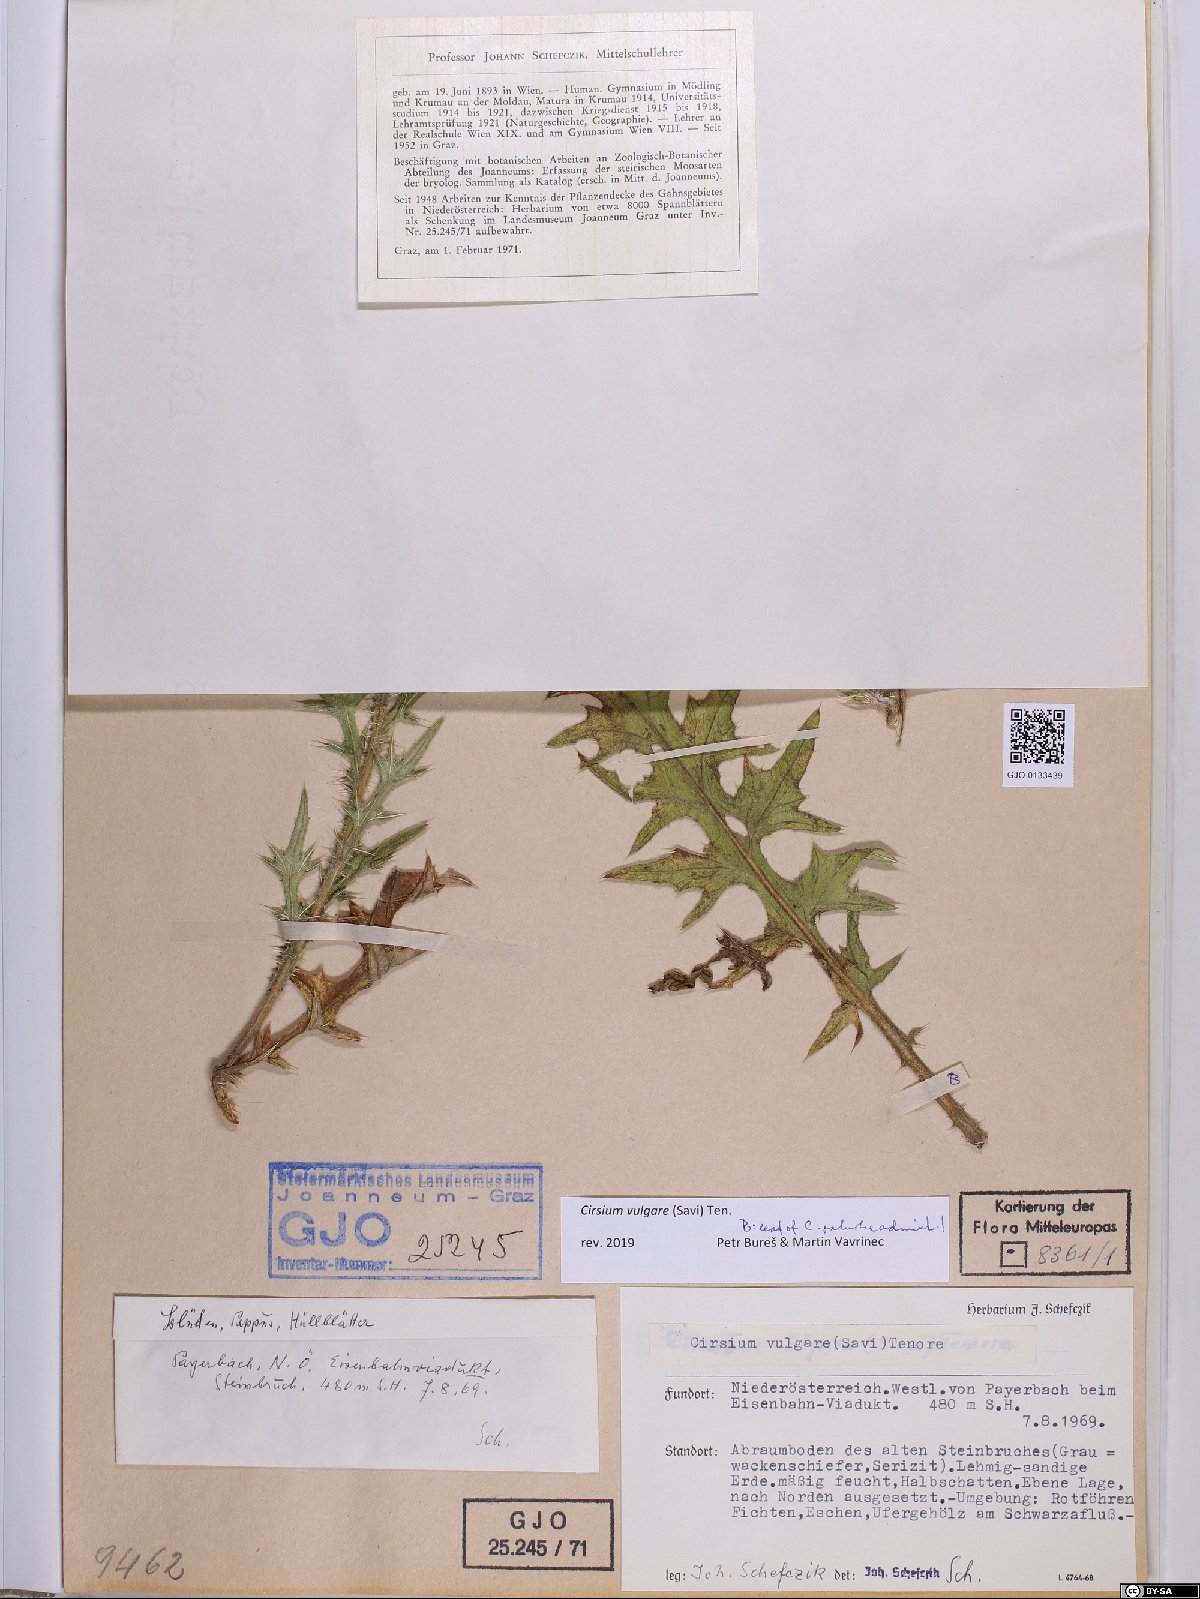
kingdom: Plantae
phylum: Tracheophyta
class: Magnoliopsida
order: Asterales
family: Asteraceae
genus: Cirsium
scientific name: Cirsium vulgare
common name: Bull thistle
